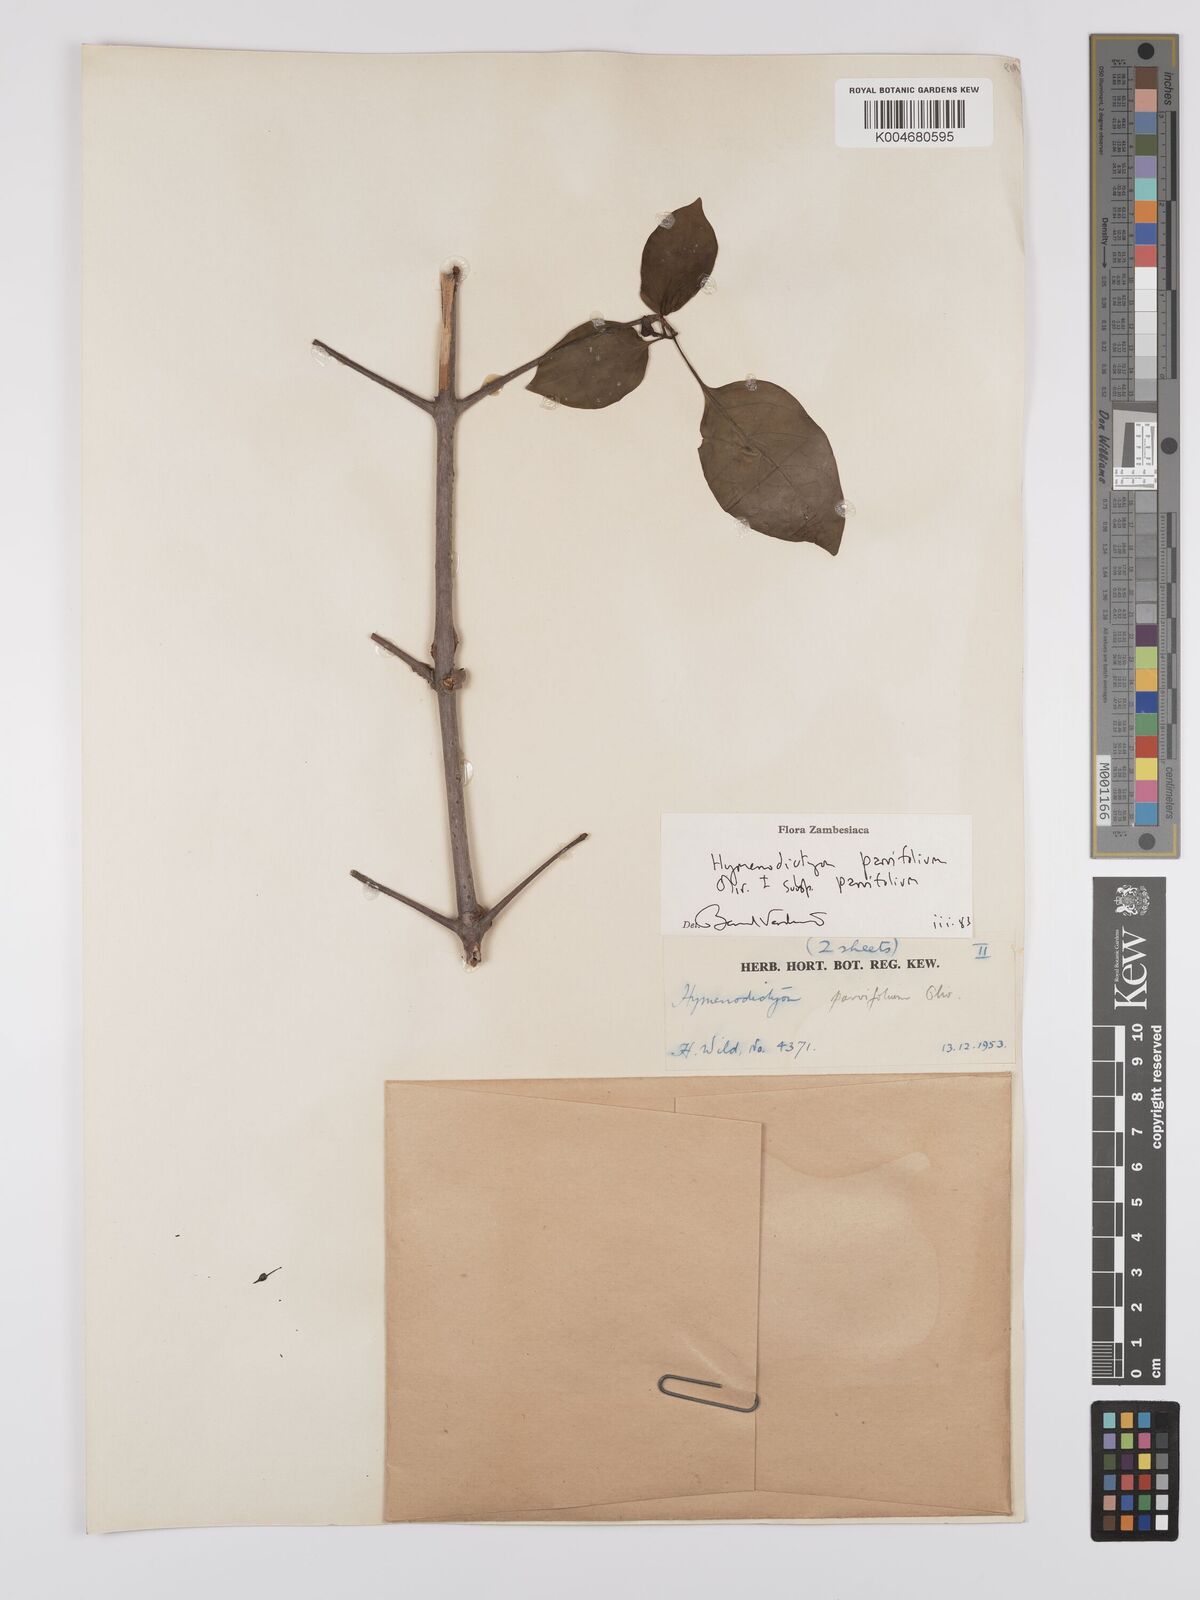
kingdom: Plantae
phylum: Tracheophyta
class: Magnoliopsida
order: Gentianales
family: Rubiaceae
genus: Hymenodictyon
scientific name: Hymenodictyon parvifolium
